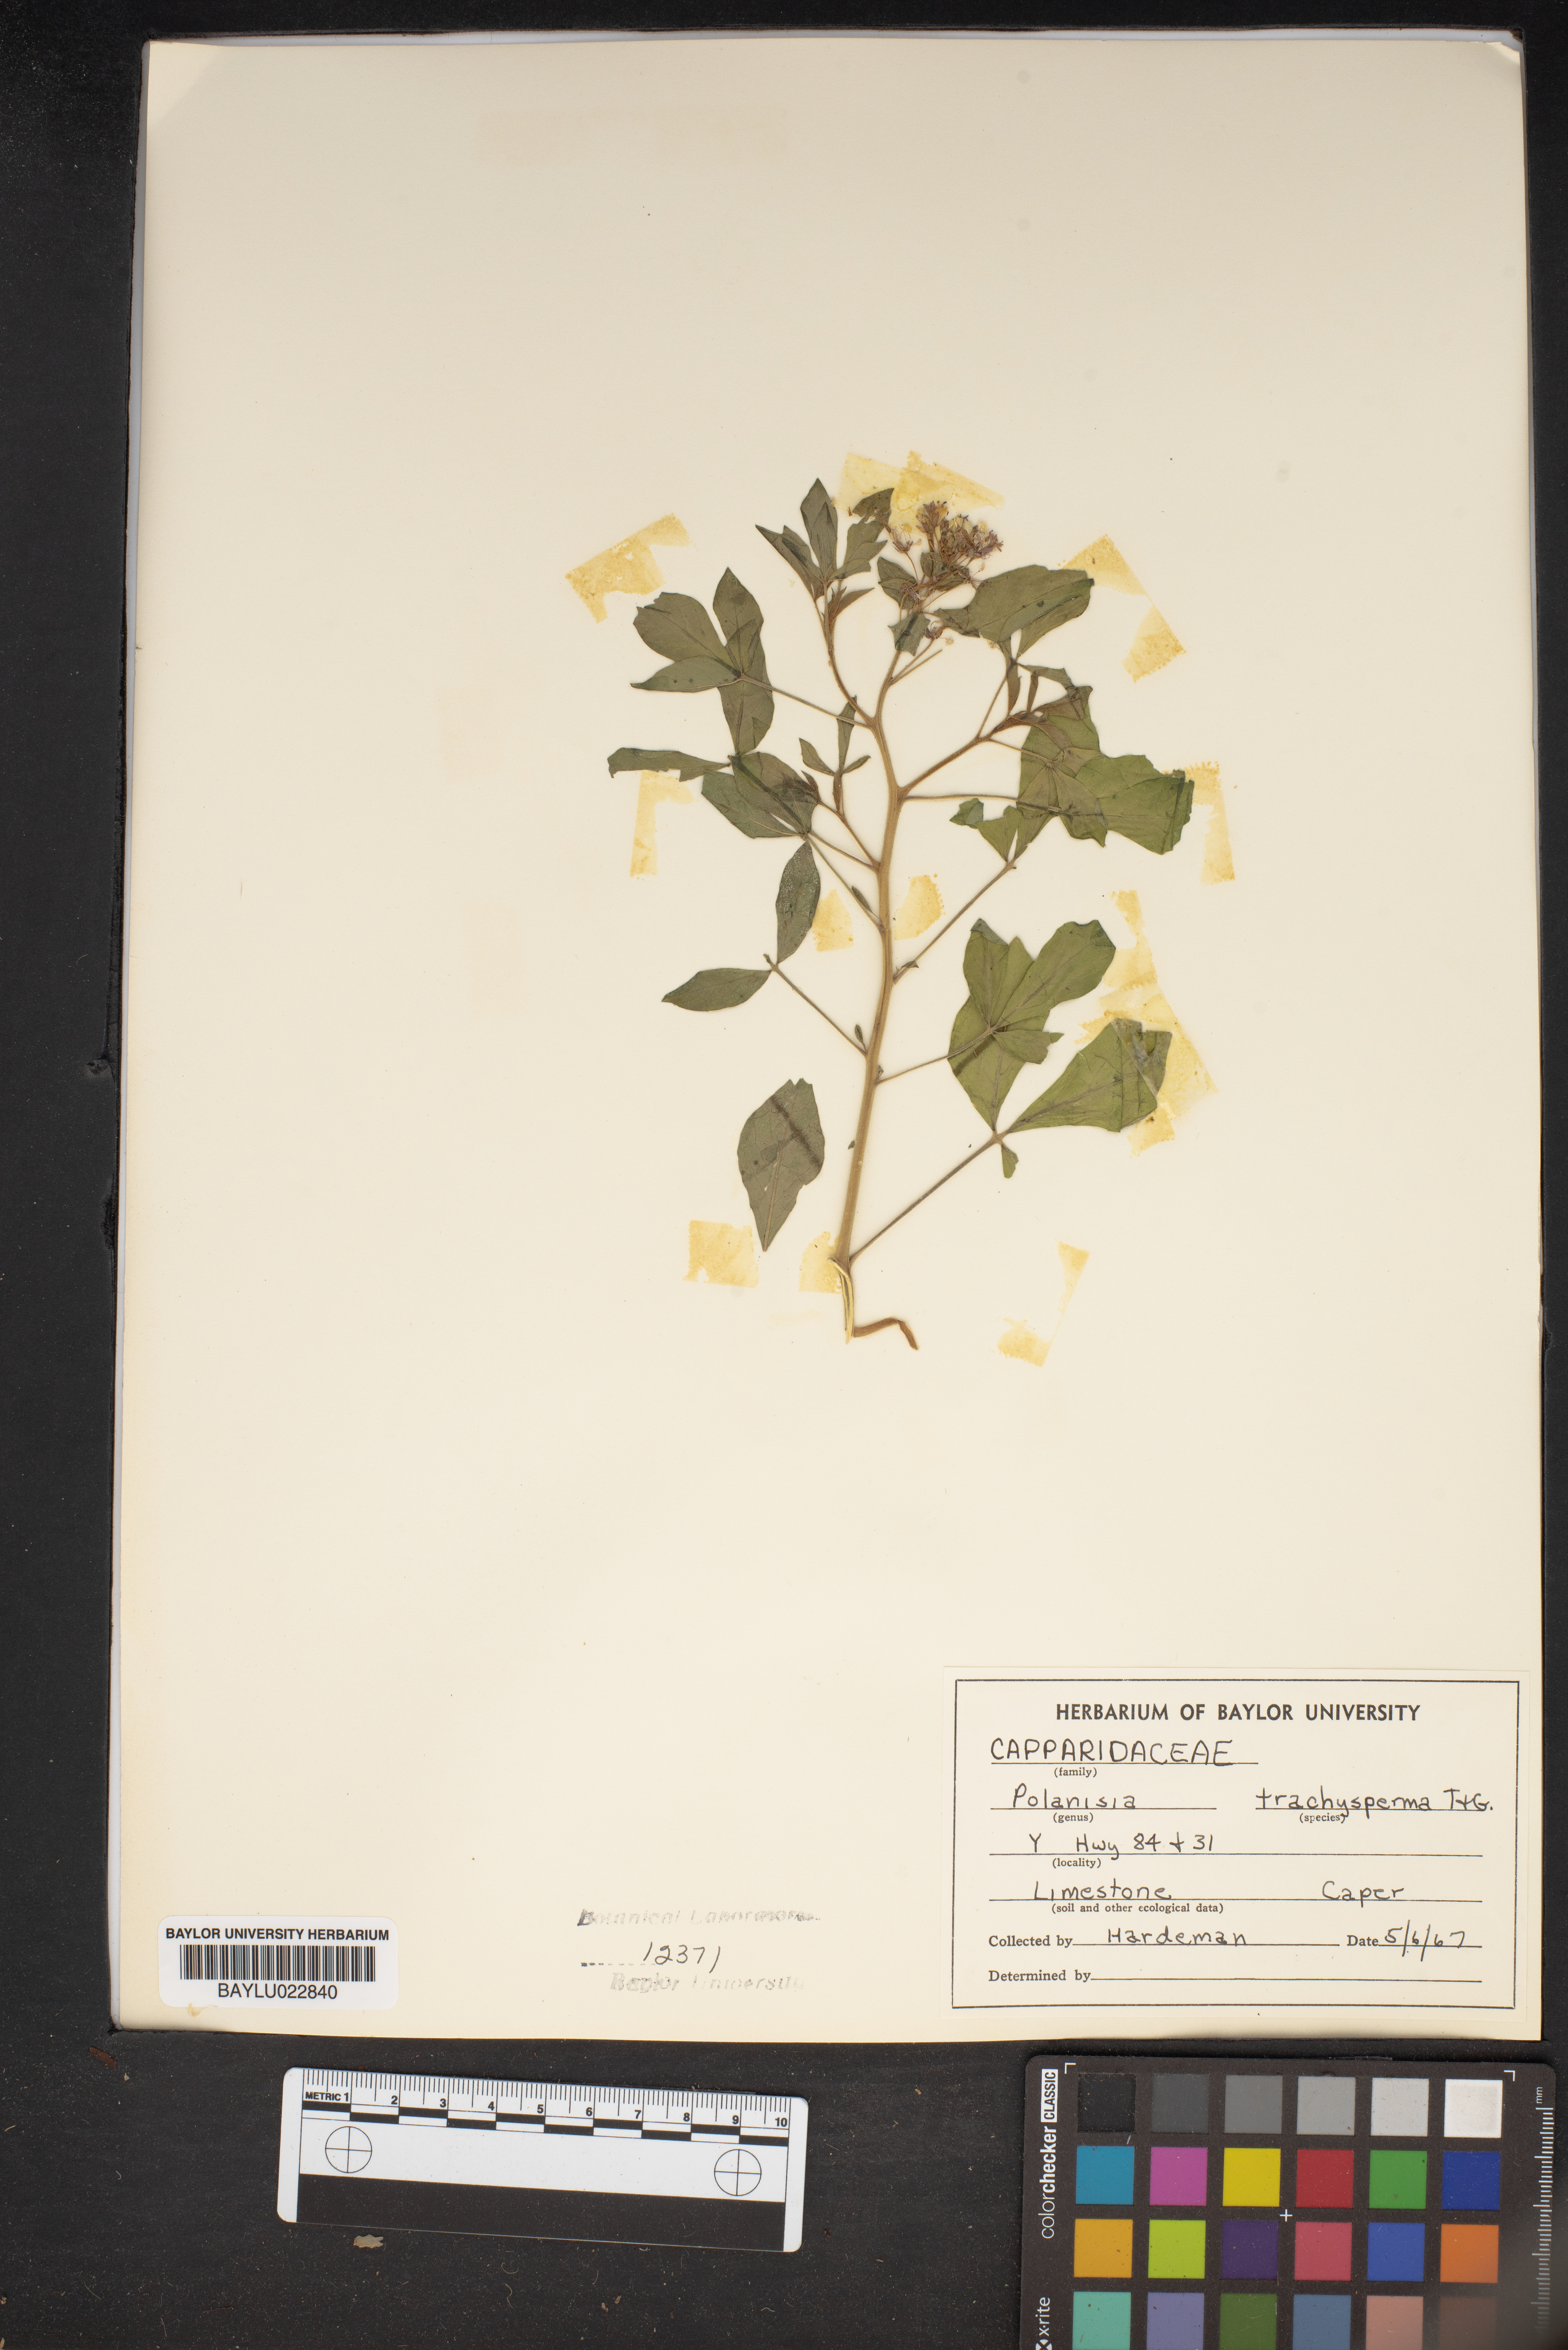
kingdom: Plantae
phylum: Tracheophyta
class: Magnoliopsida
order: Brassicales
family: Cleomaceae
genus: Polanisia
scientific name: Polanisia trachysperma
